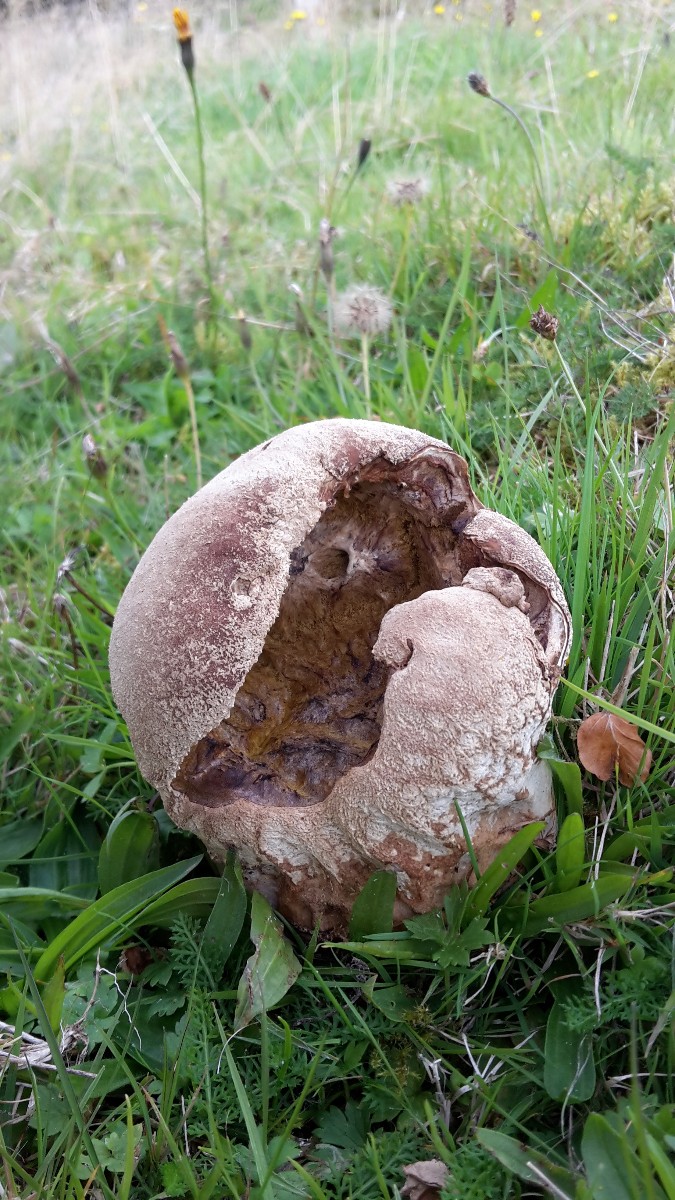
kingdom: Fungi
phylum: Basidiomycota
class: Agaricomycetes
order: Agaricales
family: Lycoperdaceae
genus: Bovistella
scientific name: Bovistella utriformis
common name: skællet støvbold
